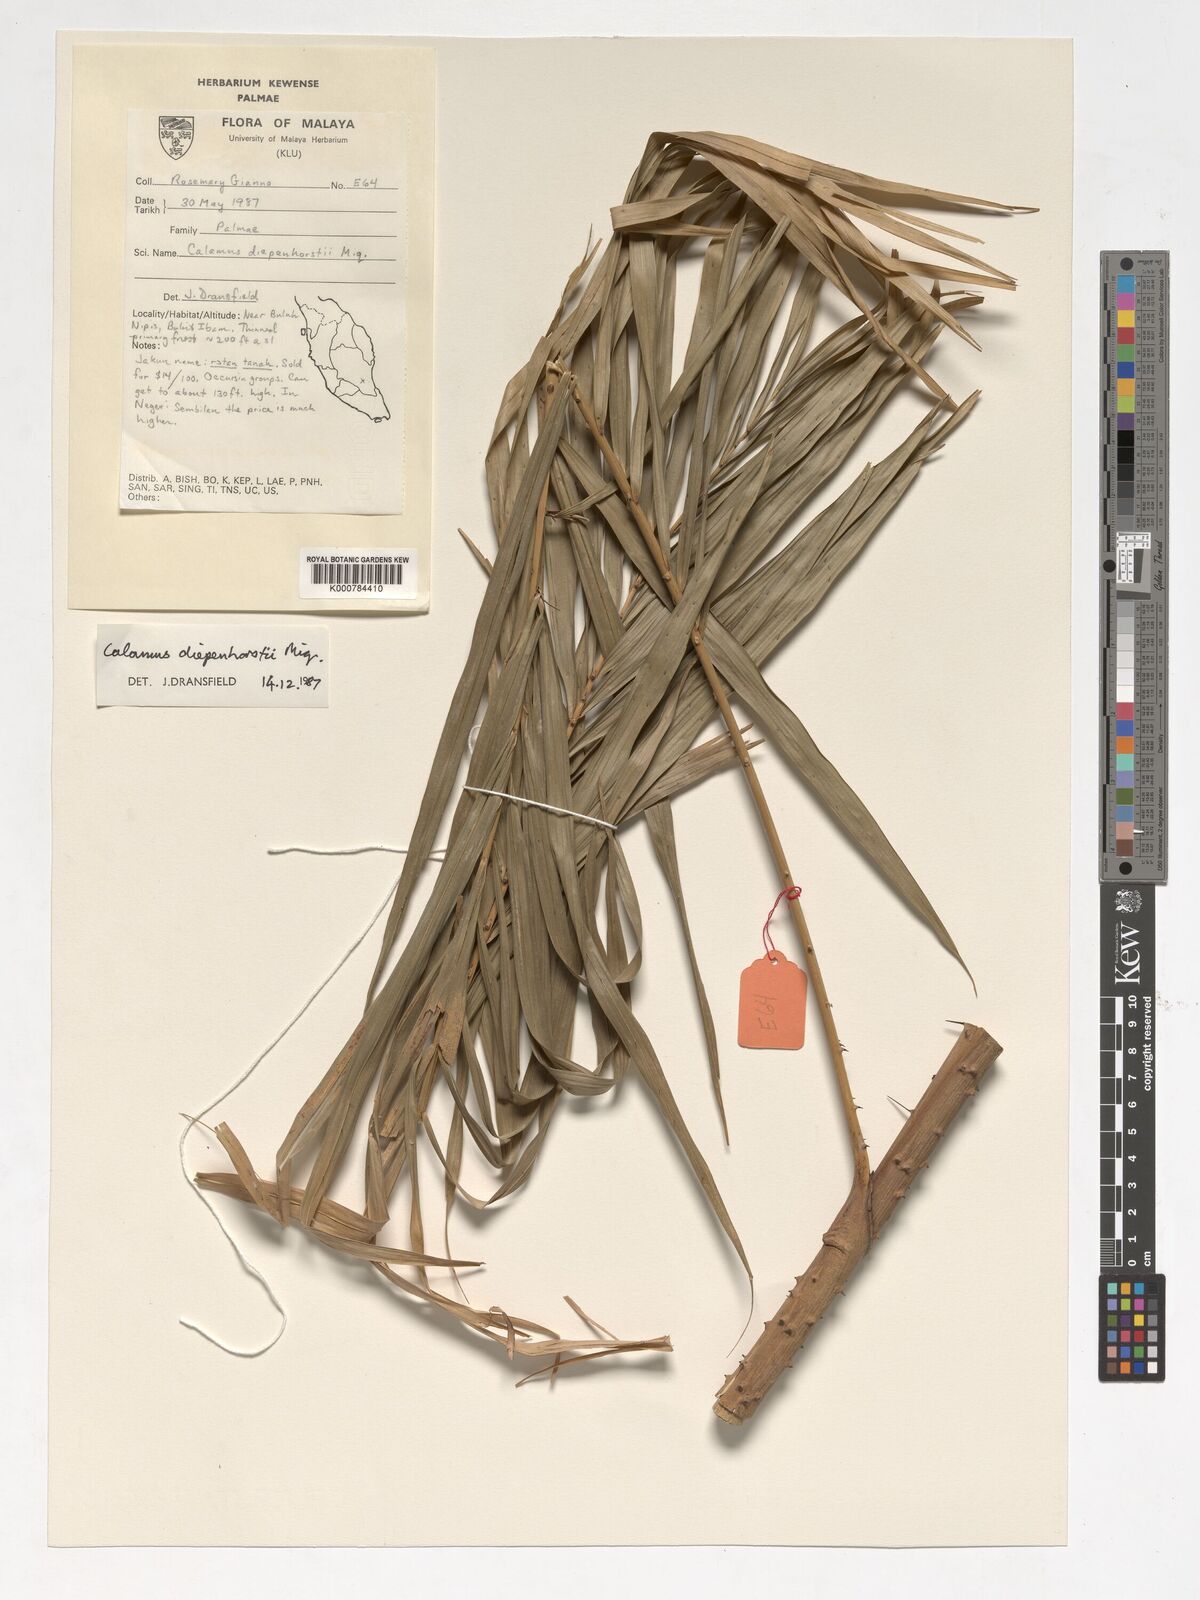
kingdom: Plantae
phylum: Tracheophyta
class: Liliopsida
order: Arecales
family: Arecaceae
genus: Calamus
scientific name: Calamus diepenhorstii
